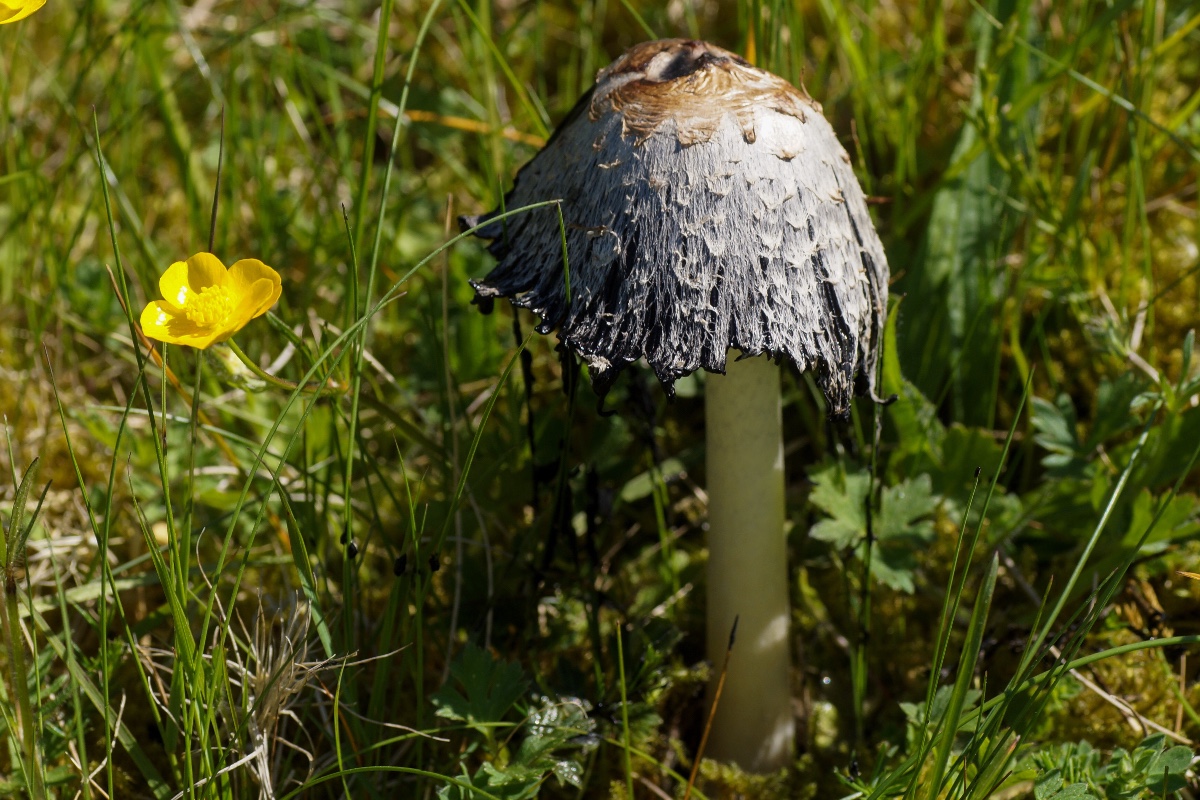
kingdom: Fungi
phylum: Basidiomycota
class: Agaricomycetes
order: Agaricales
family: Agaricaceae
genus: Coprinus
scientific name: Coprinus comatus
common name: stor parykhat
